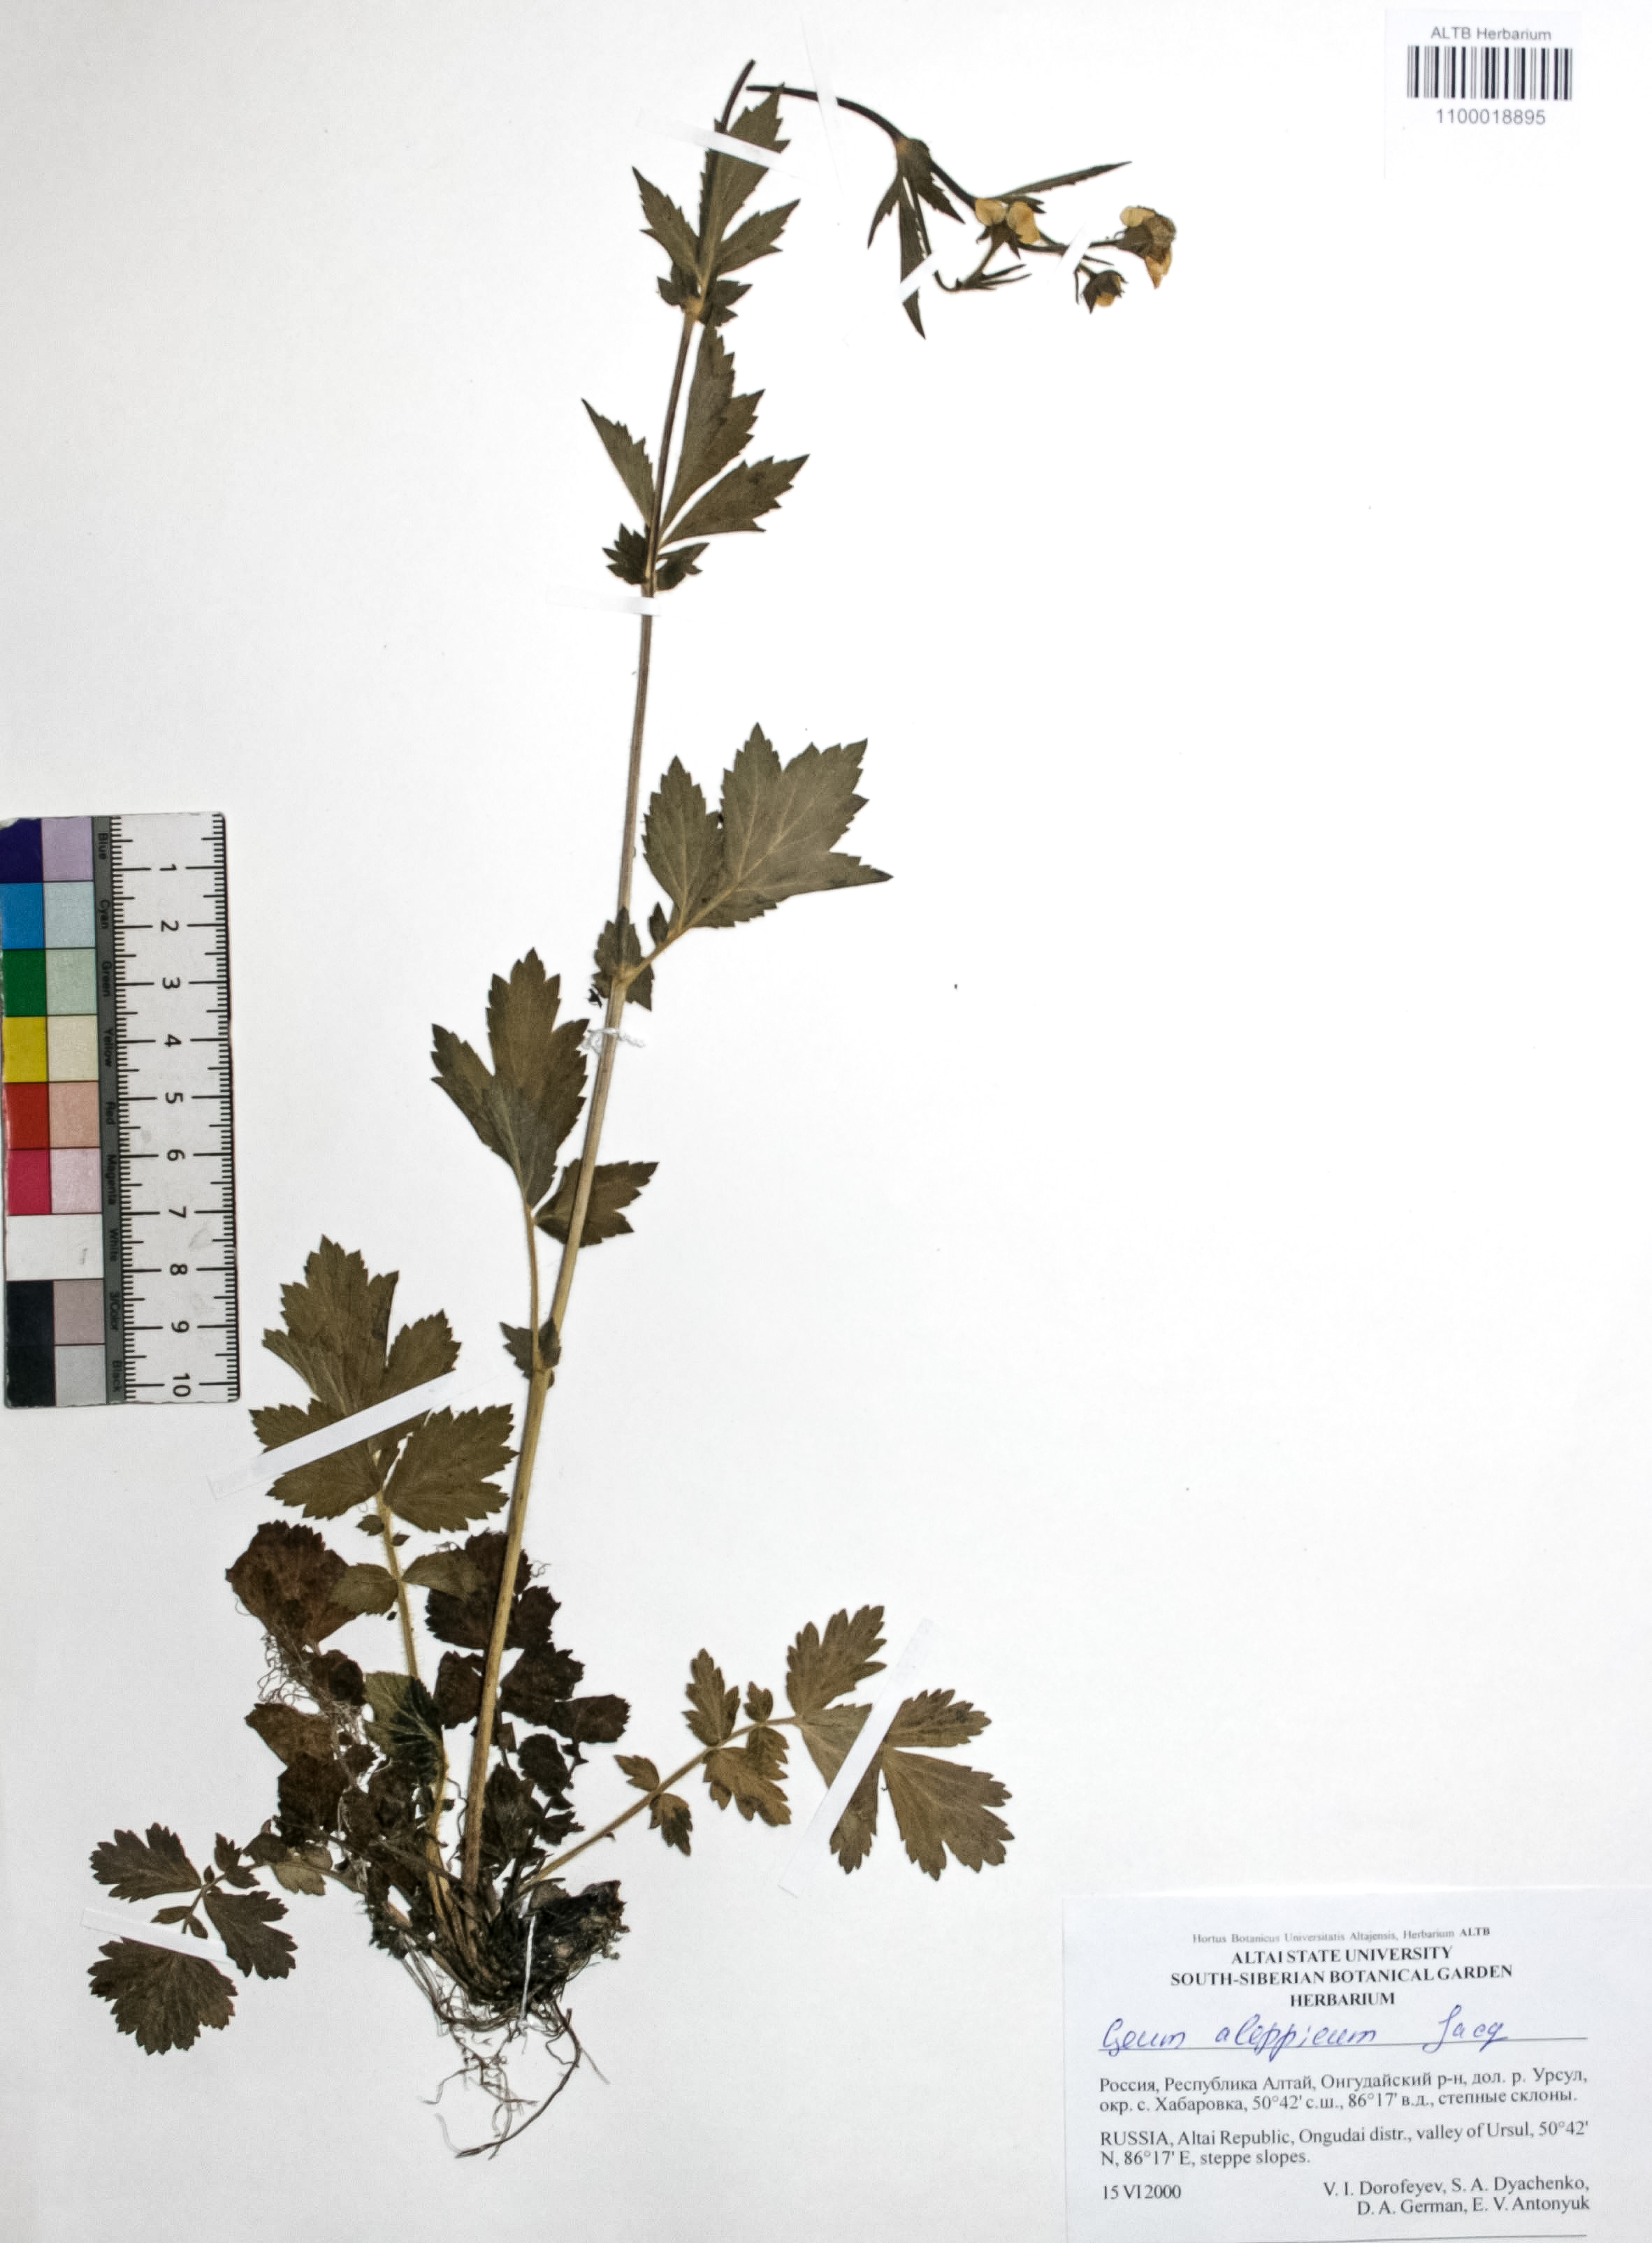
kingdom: Plantae
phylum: Tracheophyta
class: Magnoliopsida
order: Rosales
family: Rosaceae
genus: Geum
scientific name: Geum aleppicum
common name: Yellow avens
